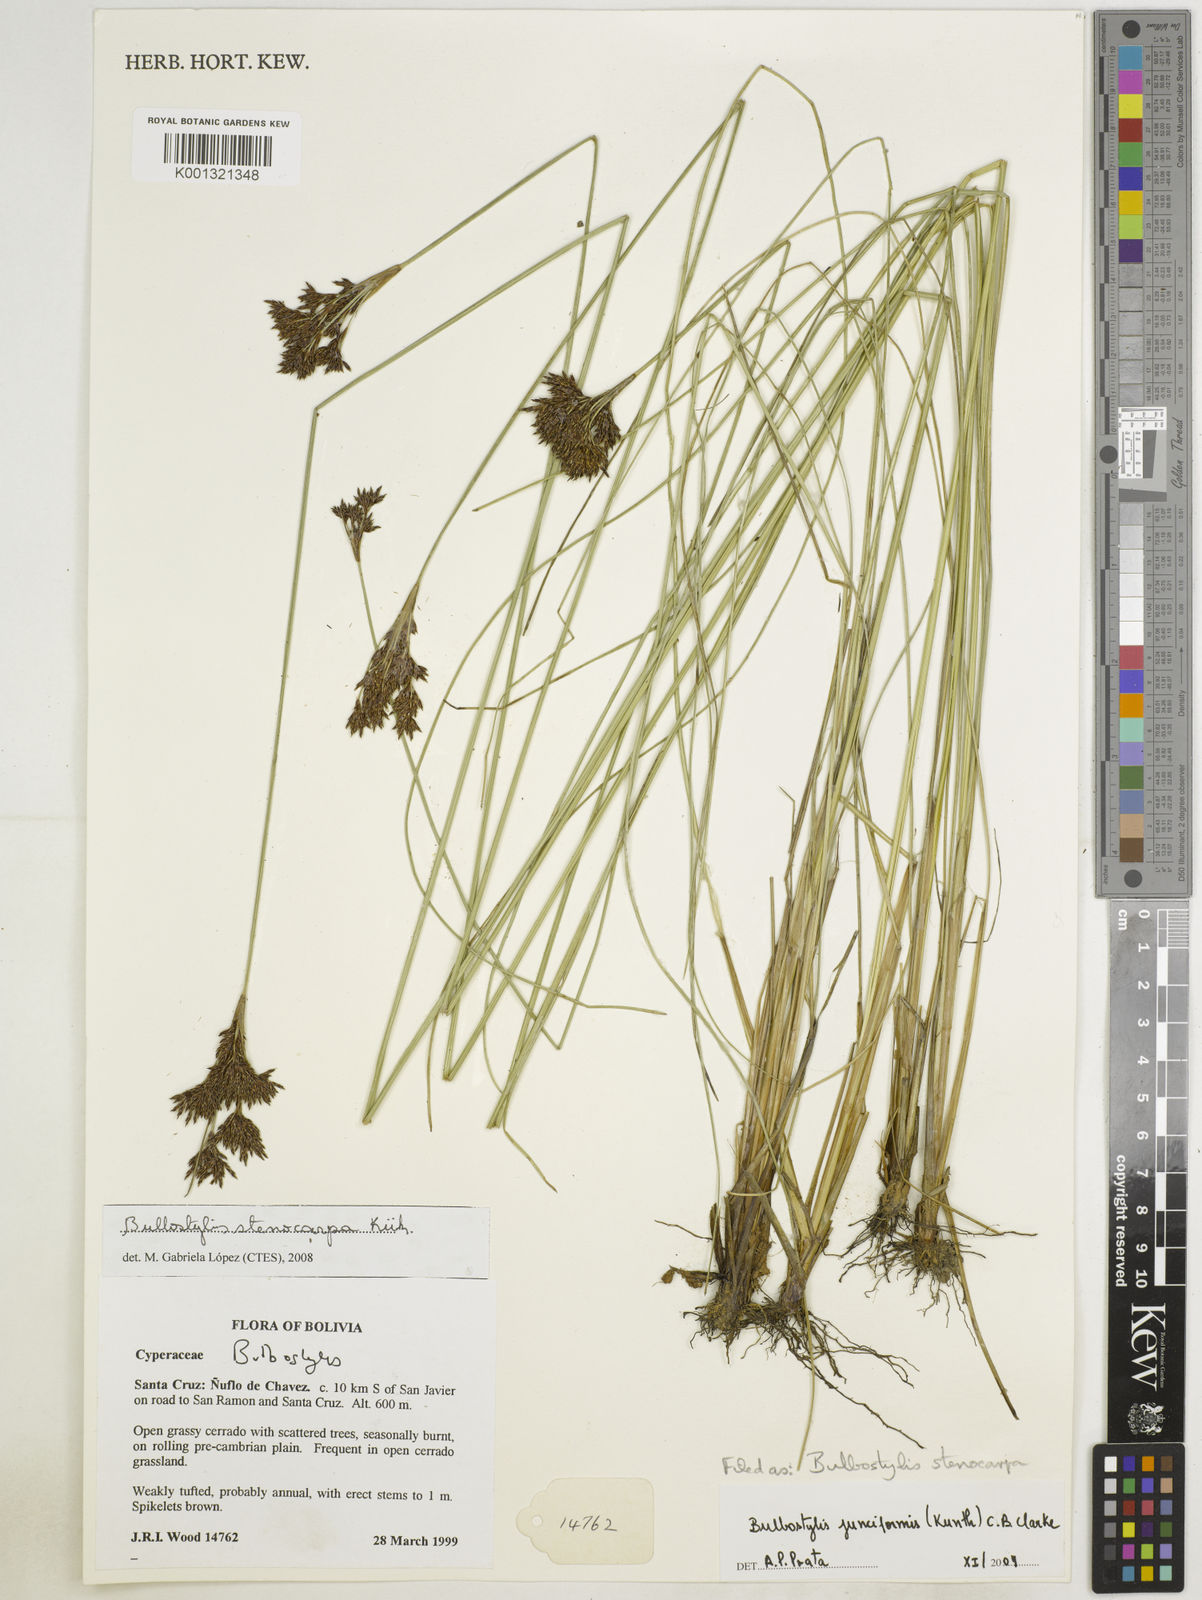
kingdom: Plantae
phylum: Tracheophyta
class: Liliopsida
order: Poales
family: Cyperaceae
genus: Bulbostylis
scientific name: Bulbostylis stenocarpa
